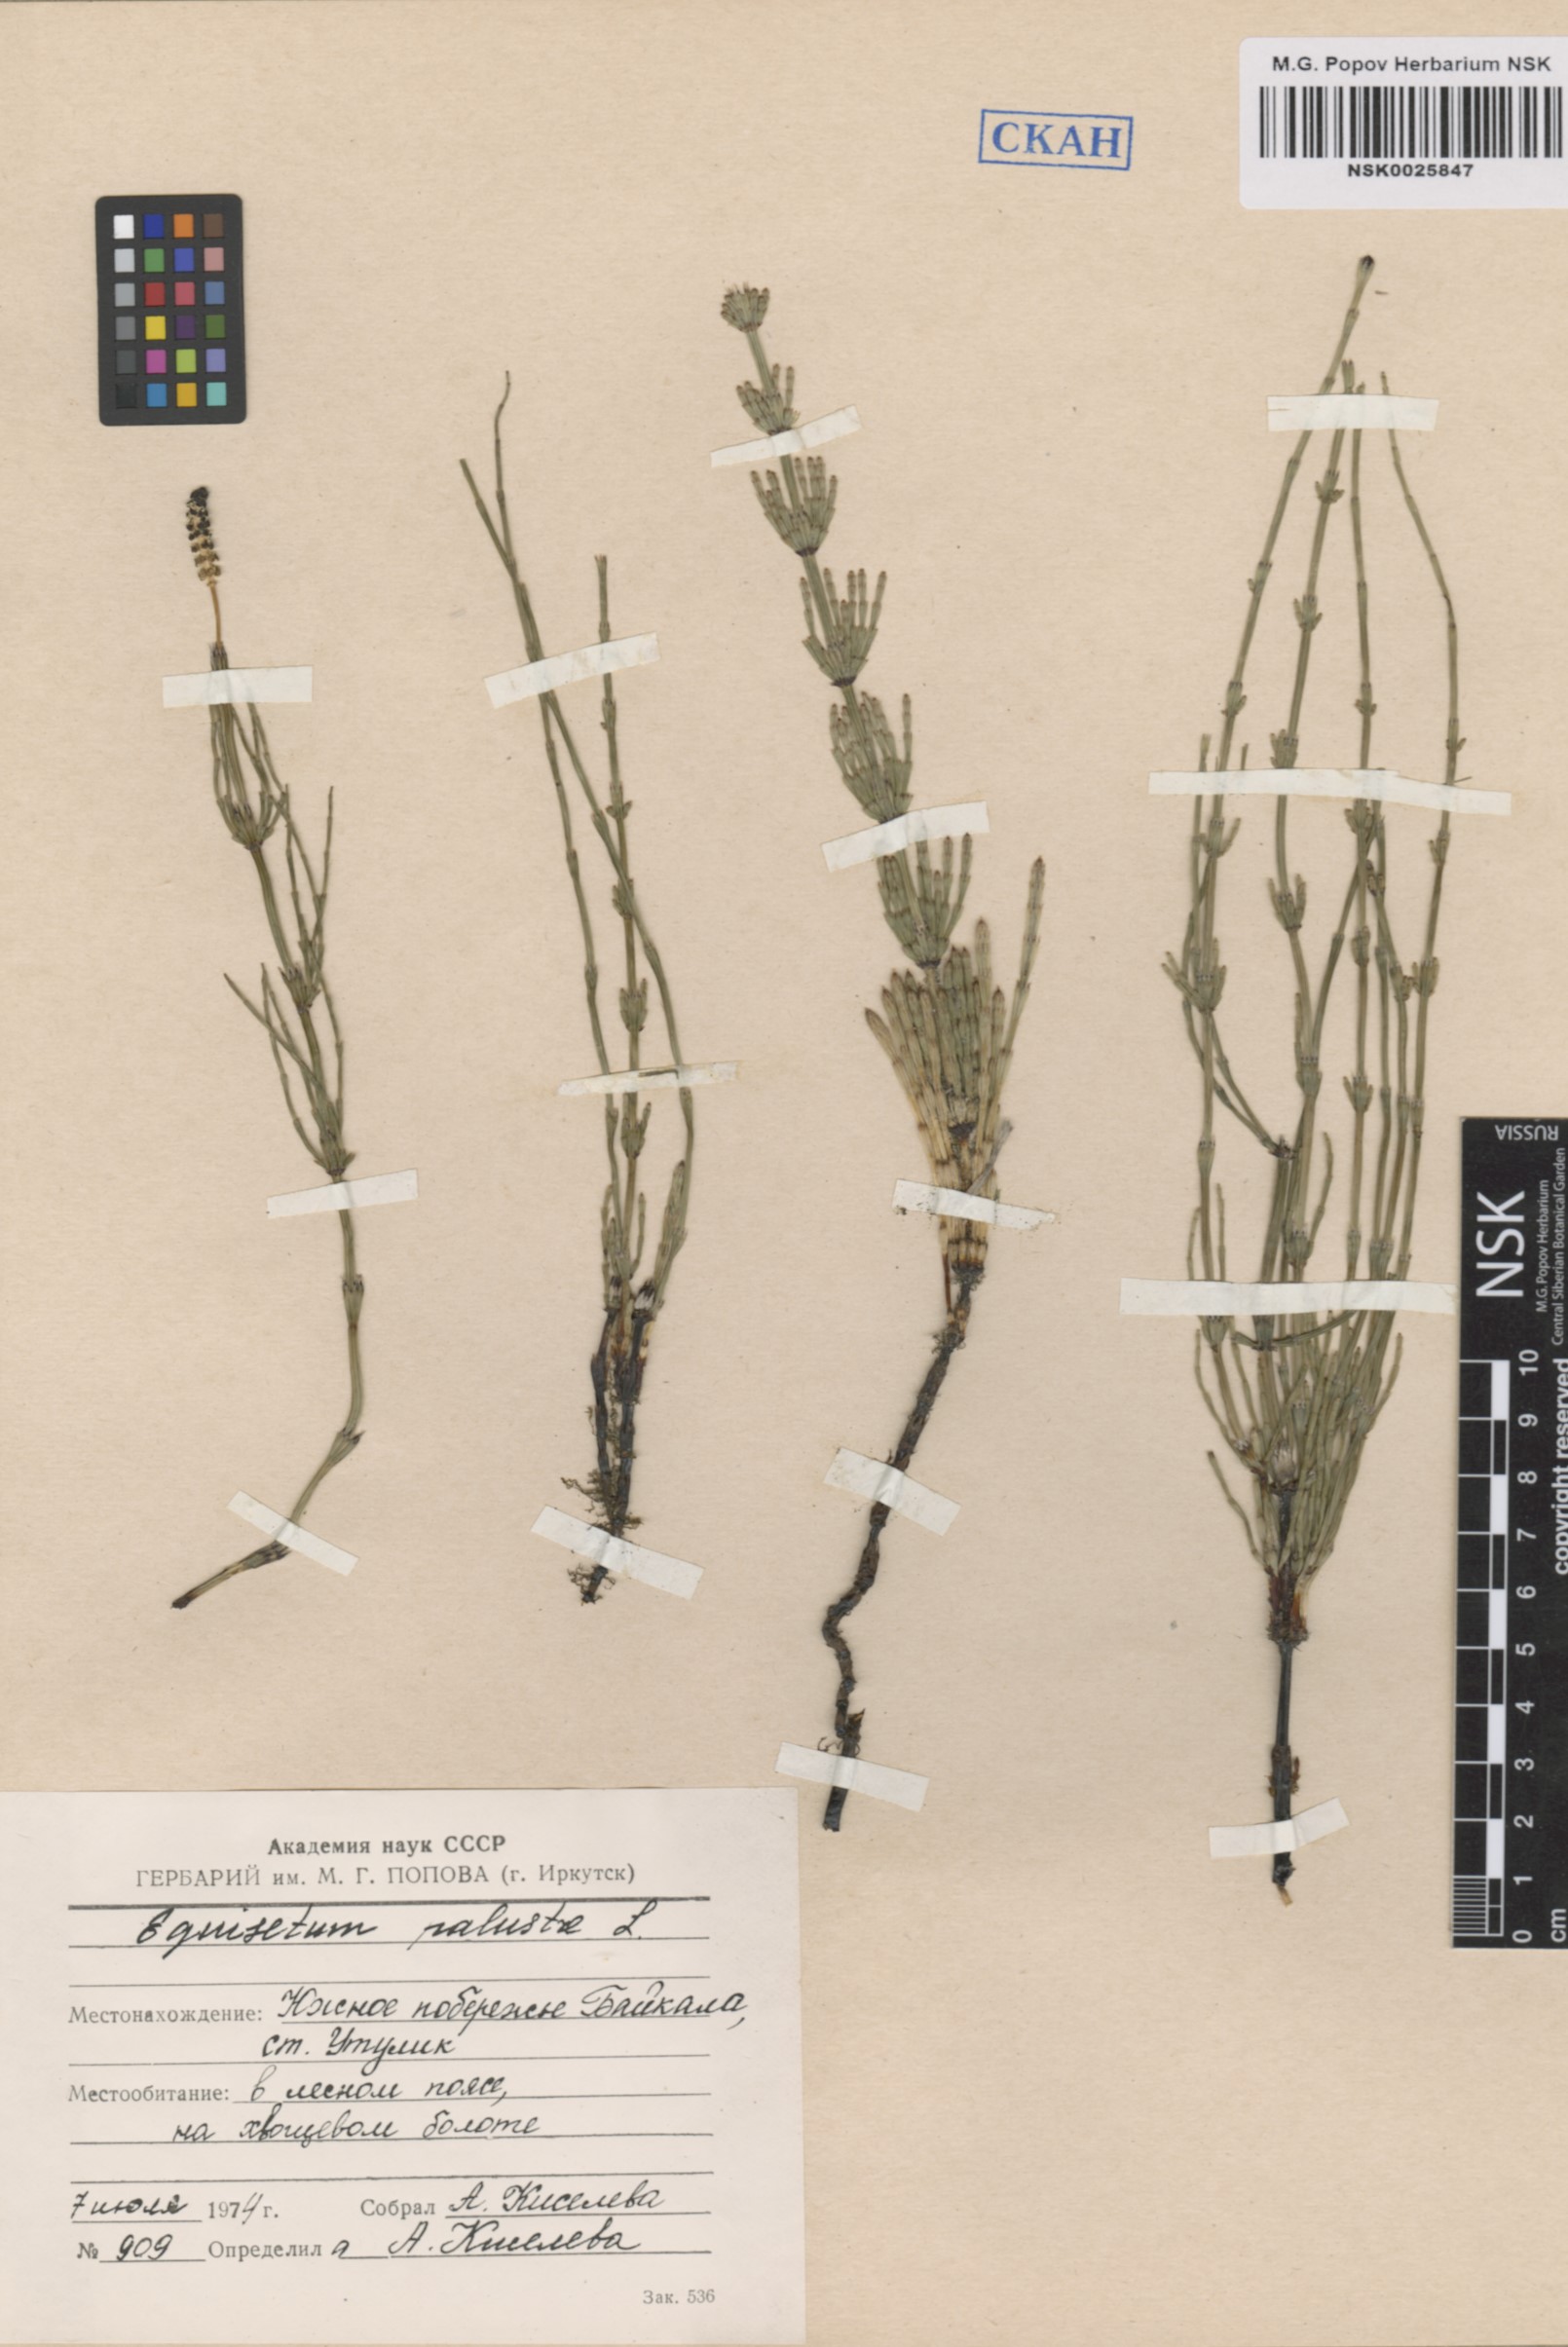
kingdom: Plantae
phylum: Tracheophyta
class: Polypodiopsida
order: Equisetales
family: Equisetaceae
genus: Equisetum
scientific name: Equisetum palustre
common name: Marsh horsetail
